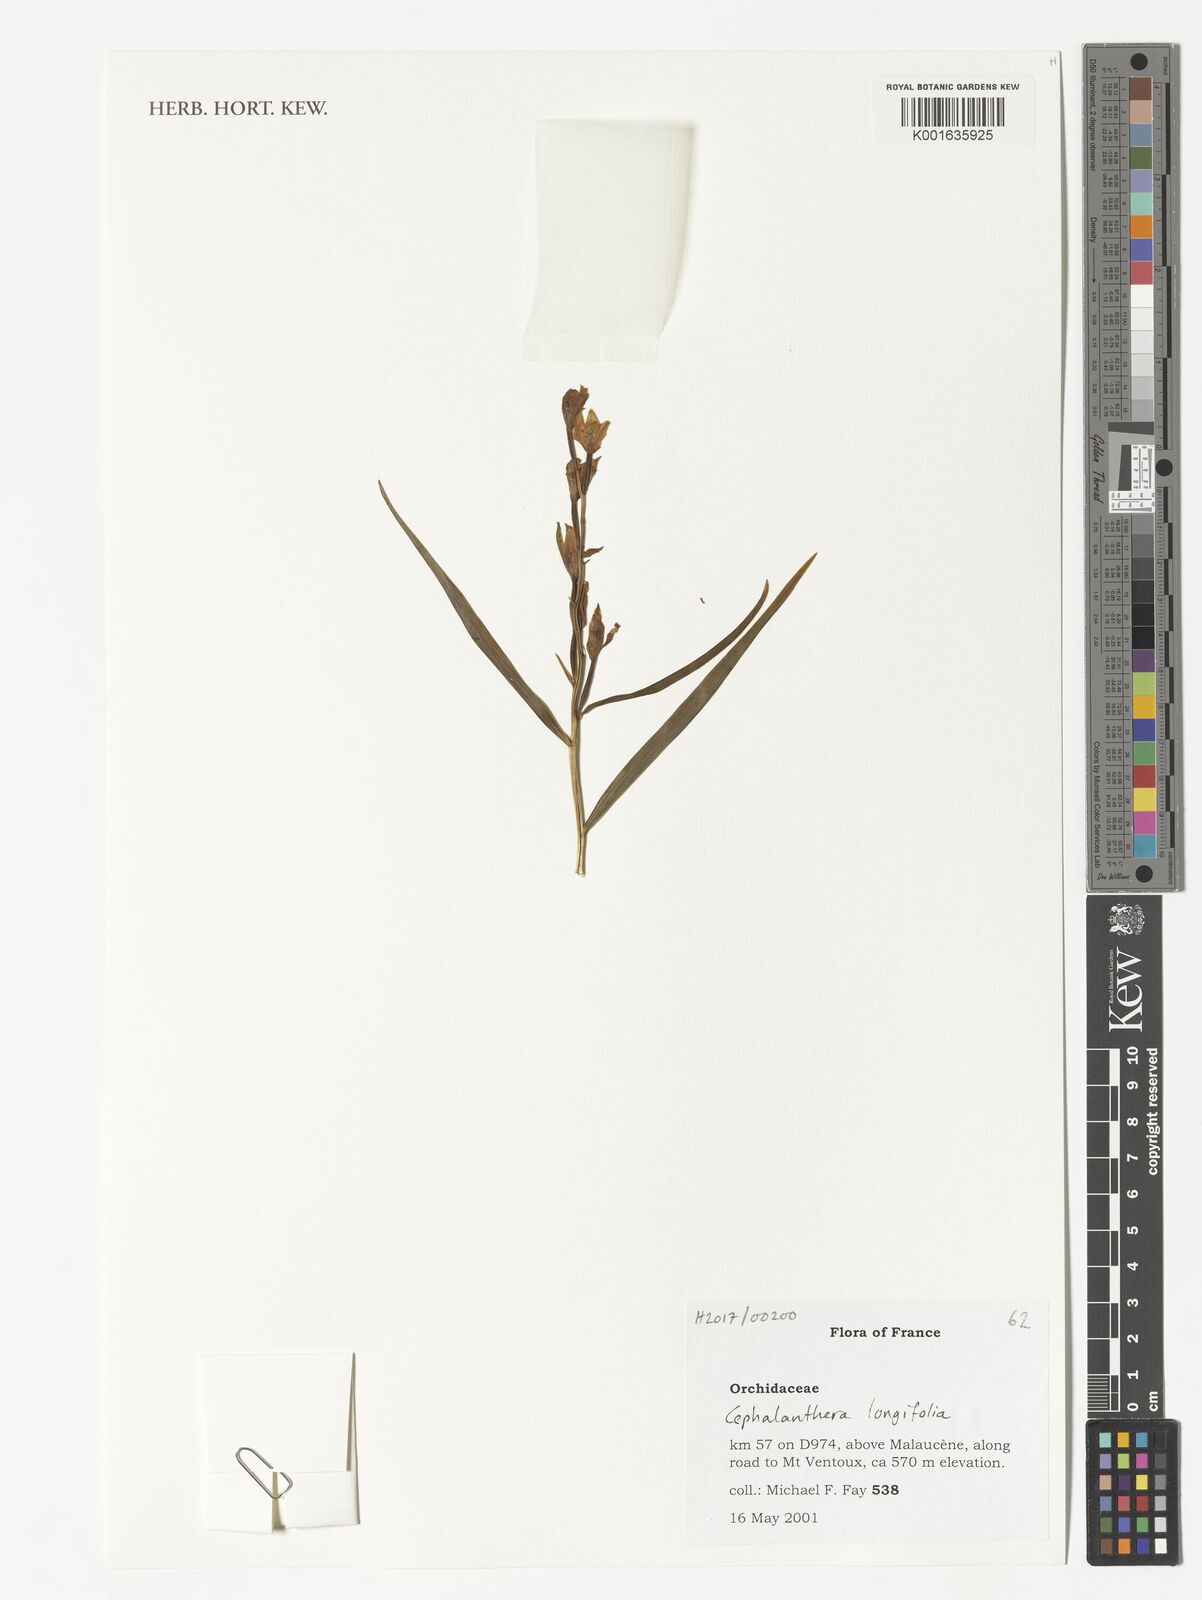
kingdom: Plantae
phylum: Tracheophyta
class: Liliopsida
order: Asparagales
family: Orchidaceae
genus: Cephalanthera
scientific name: Cephalanthera longifolia
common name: Narrow-leaved helleborine
